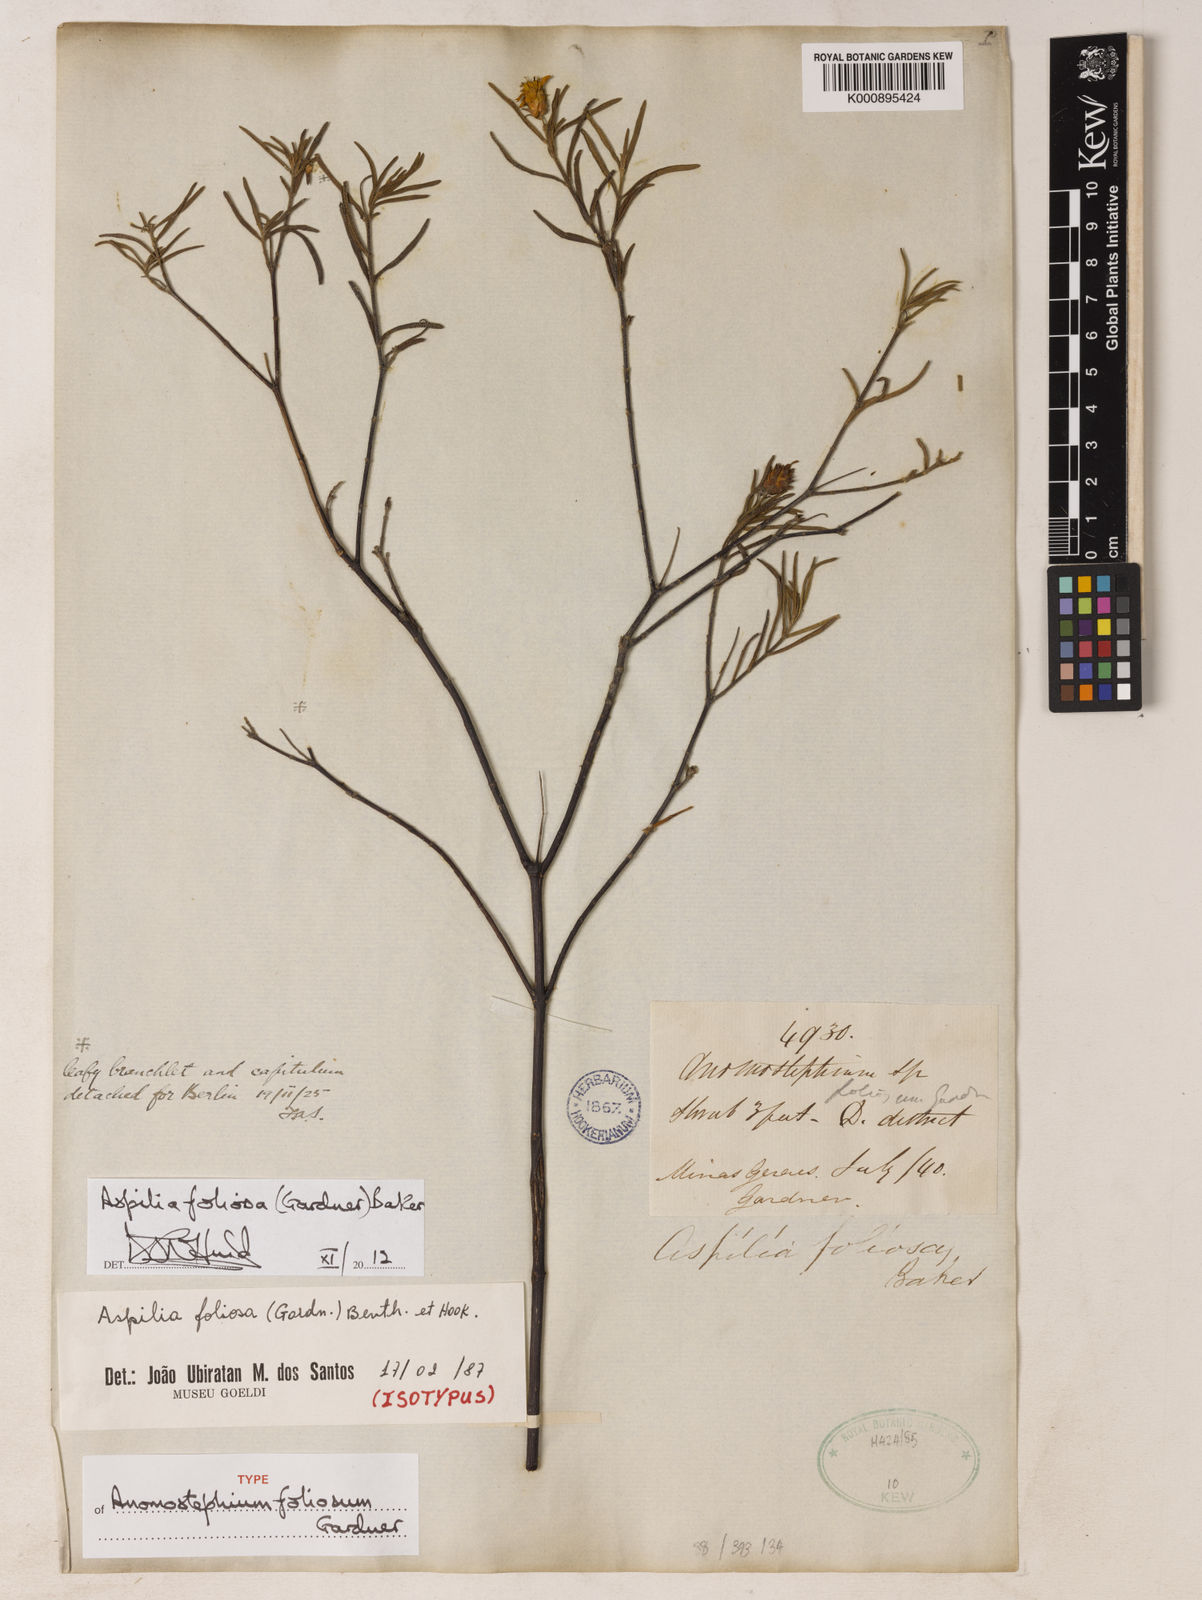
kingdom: Plantae
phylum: Tracheophyta
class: Magnoliopsida
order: Asterales
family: Asteraceae
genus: Aspilia
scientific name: Aspilia
